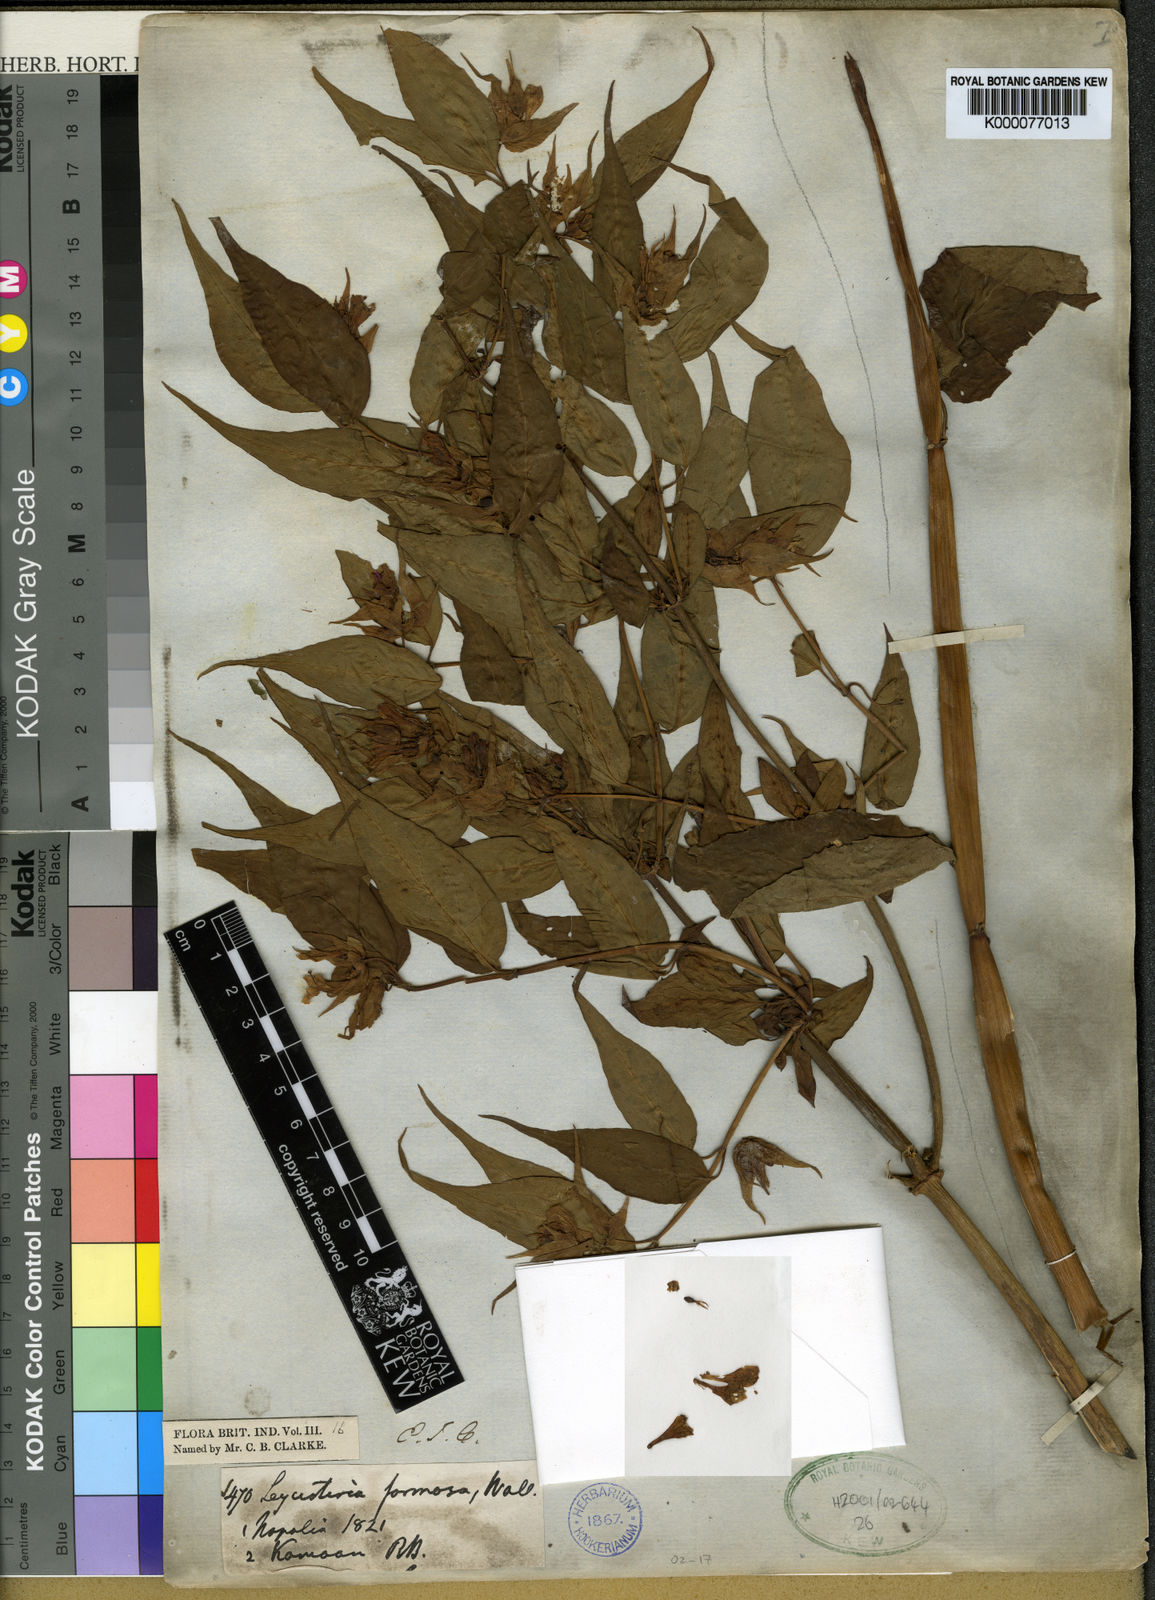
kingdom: Plantae
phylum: Tracheophyta
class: Magnoliopsida
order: Dipsacales
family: Caprifoliaceae
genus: Leycesteria
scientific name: Leycesteria formosa
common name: Himalayan honeysuckle
